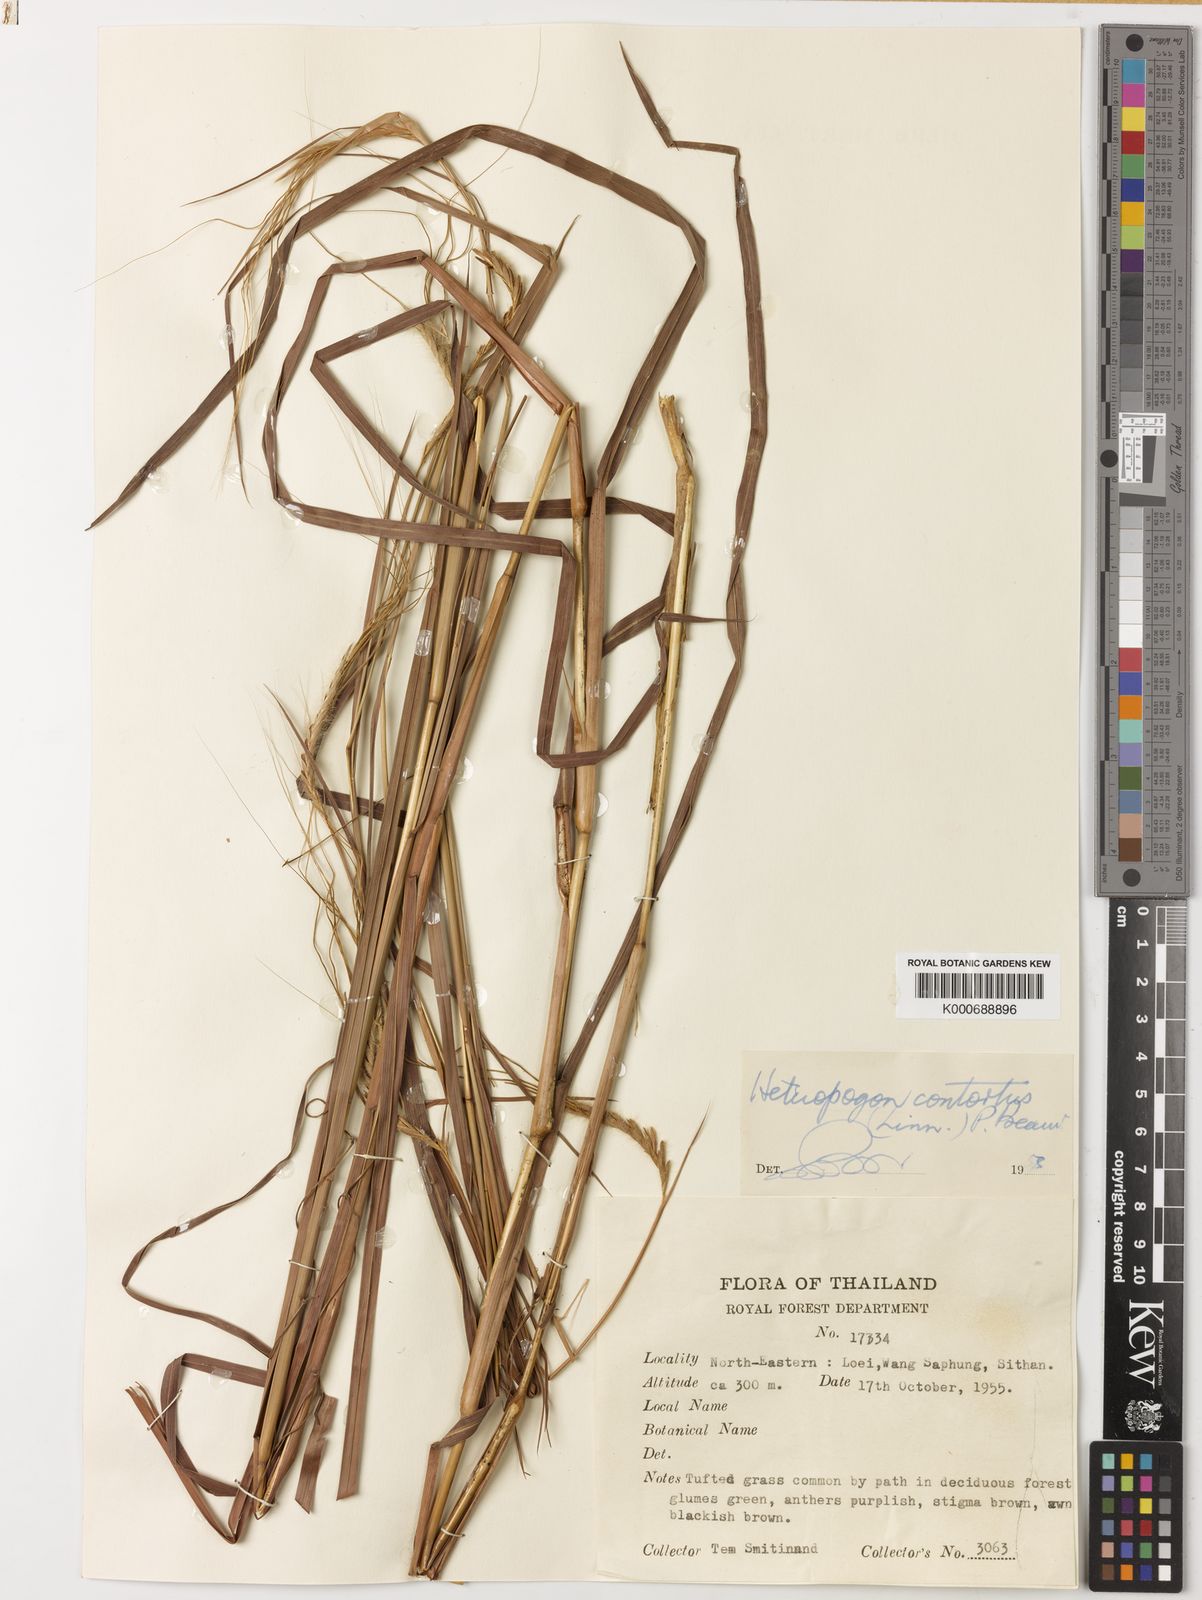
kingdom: Plantae
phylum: Tracheophyta
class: Liliopsida
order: Poales
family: Poaceae
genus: Heteropogon
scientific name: Heteropogon contortus
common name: Tanglehead
